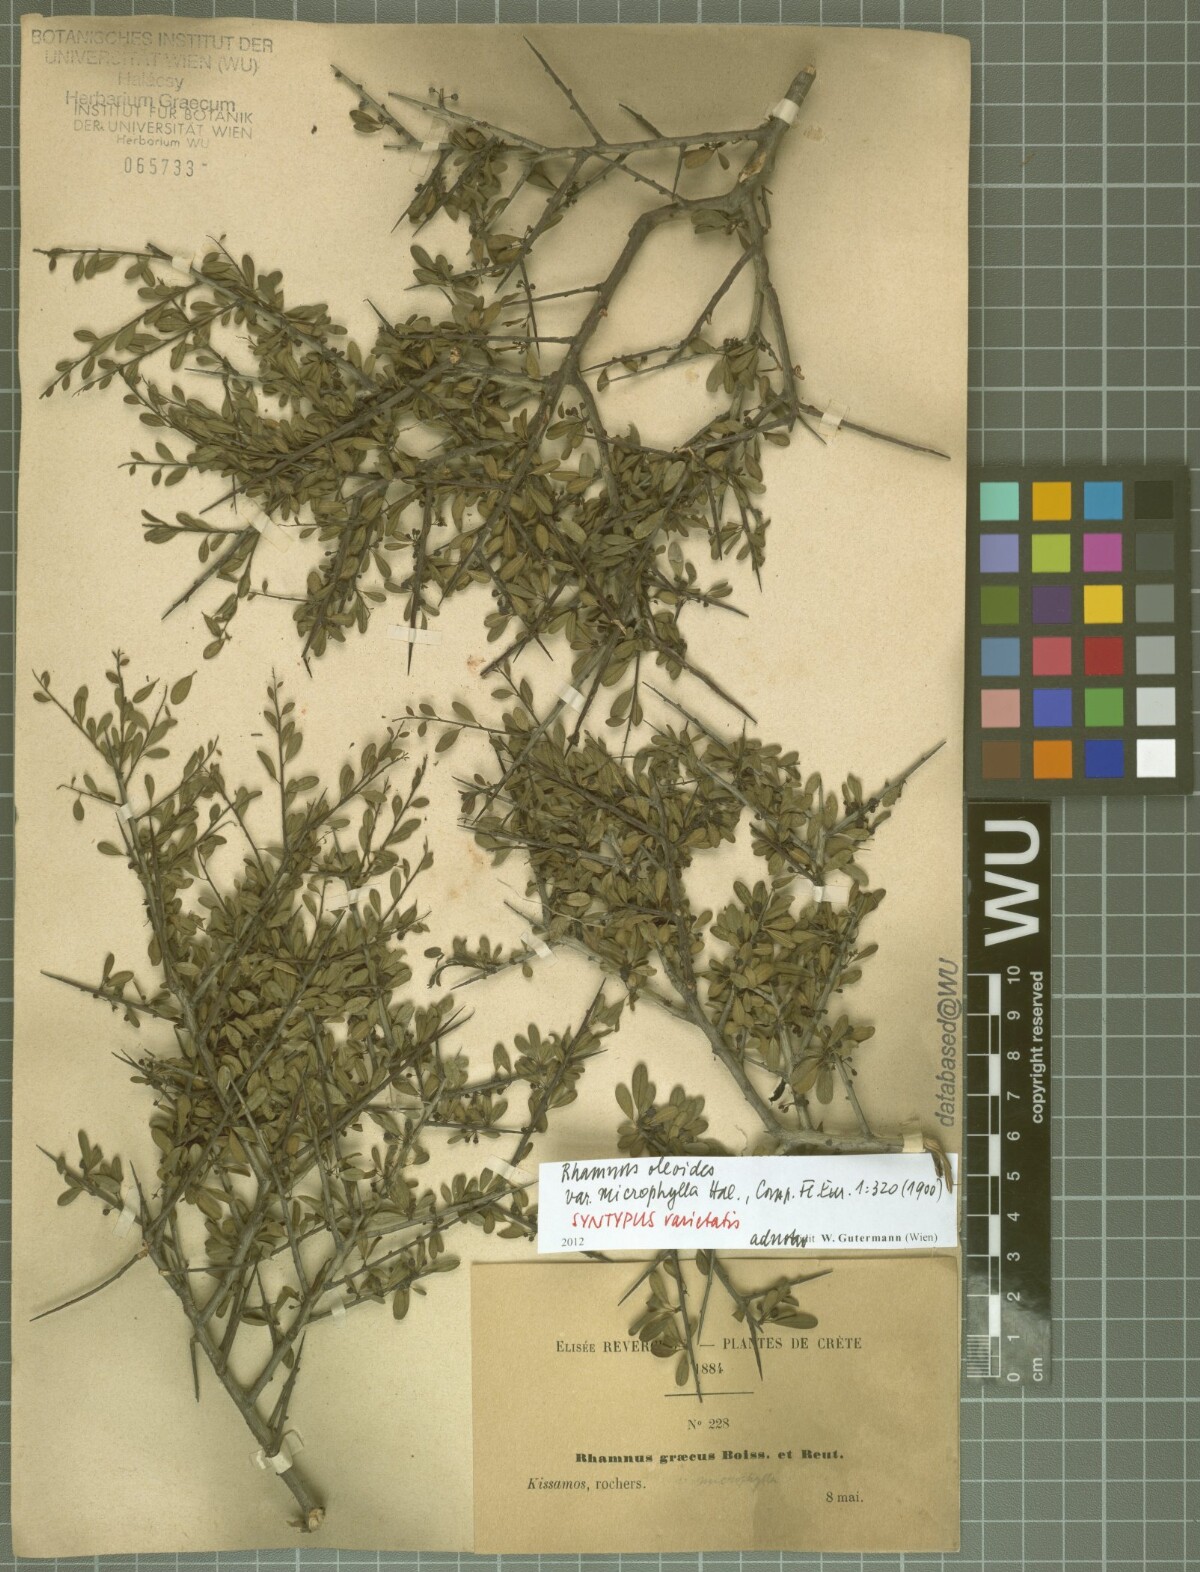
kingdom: Plantae
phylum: Tracheophyta
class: Magnoliopsida
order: Rosales
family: Rhamnaceae
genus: Rhamnus
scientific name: Rhamnus oleoides
